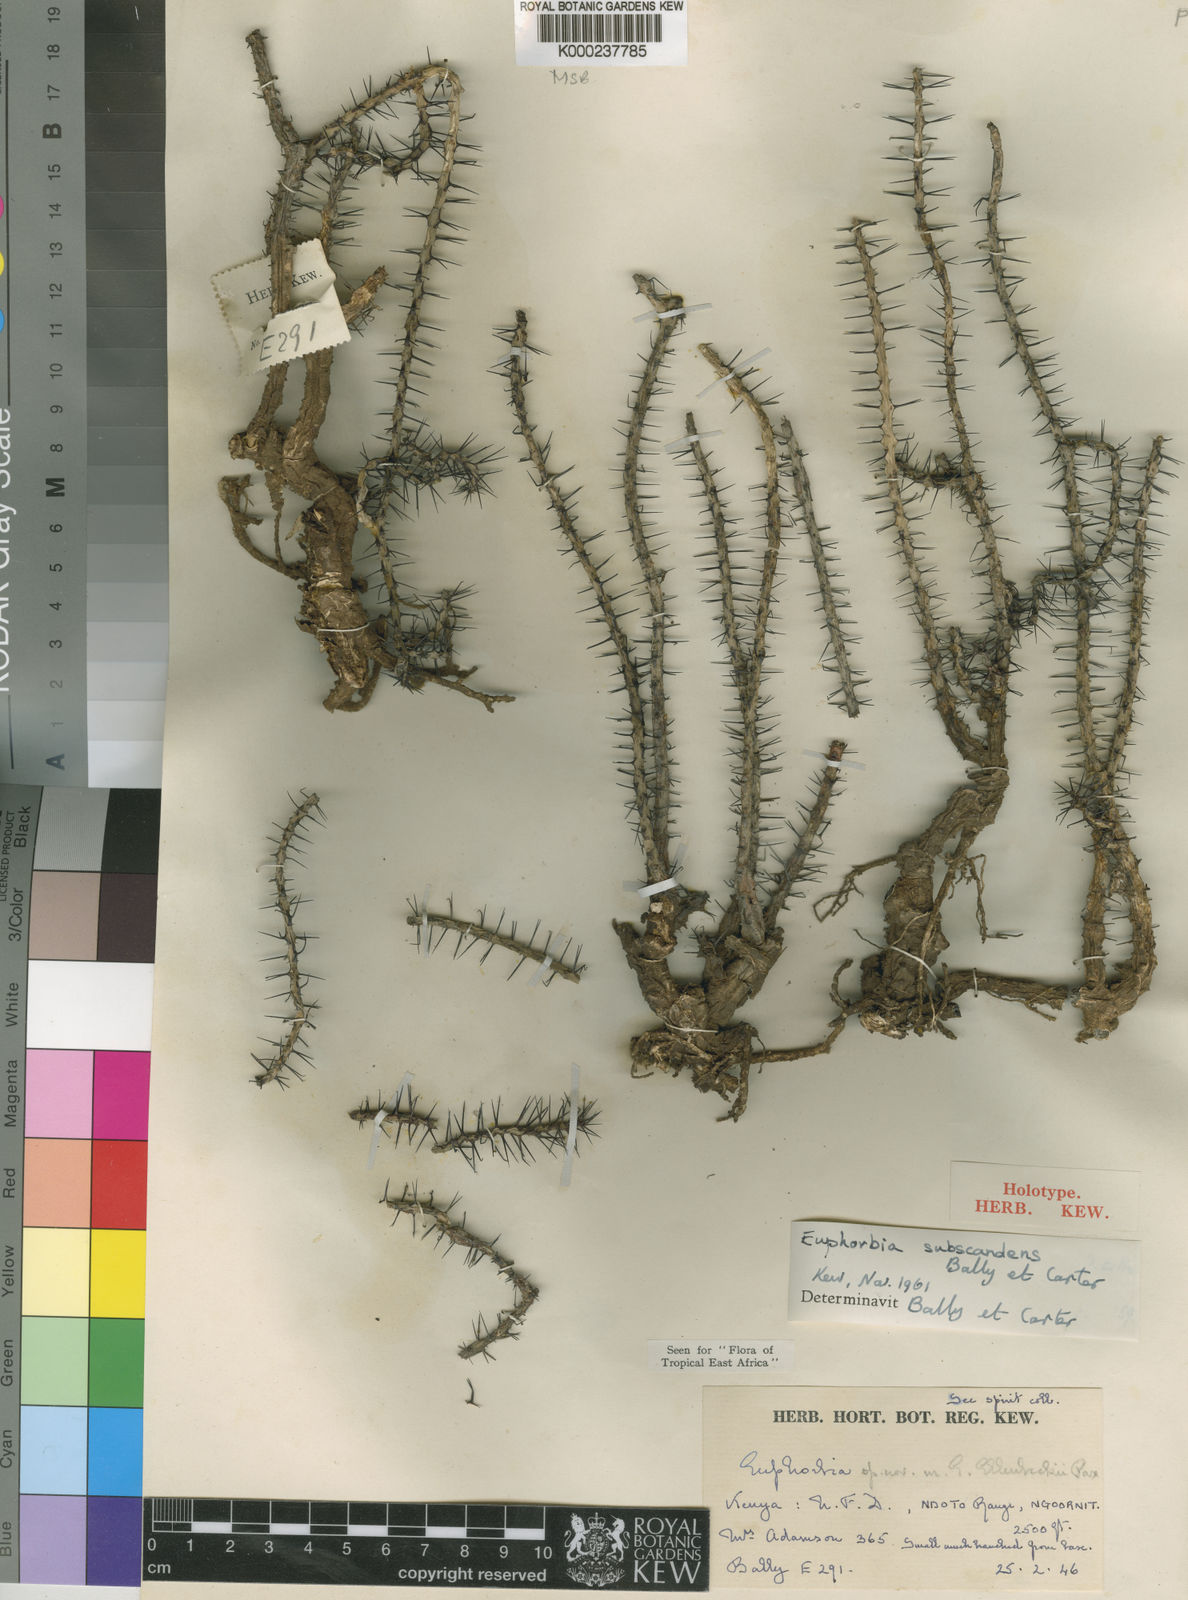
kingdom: Plantae
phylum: Tracheophyta
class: Magnoliopsida
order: Malpighiales
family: Euphorbiaceae
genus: Euphorbia
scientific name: Euphorbia subscandens
